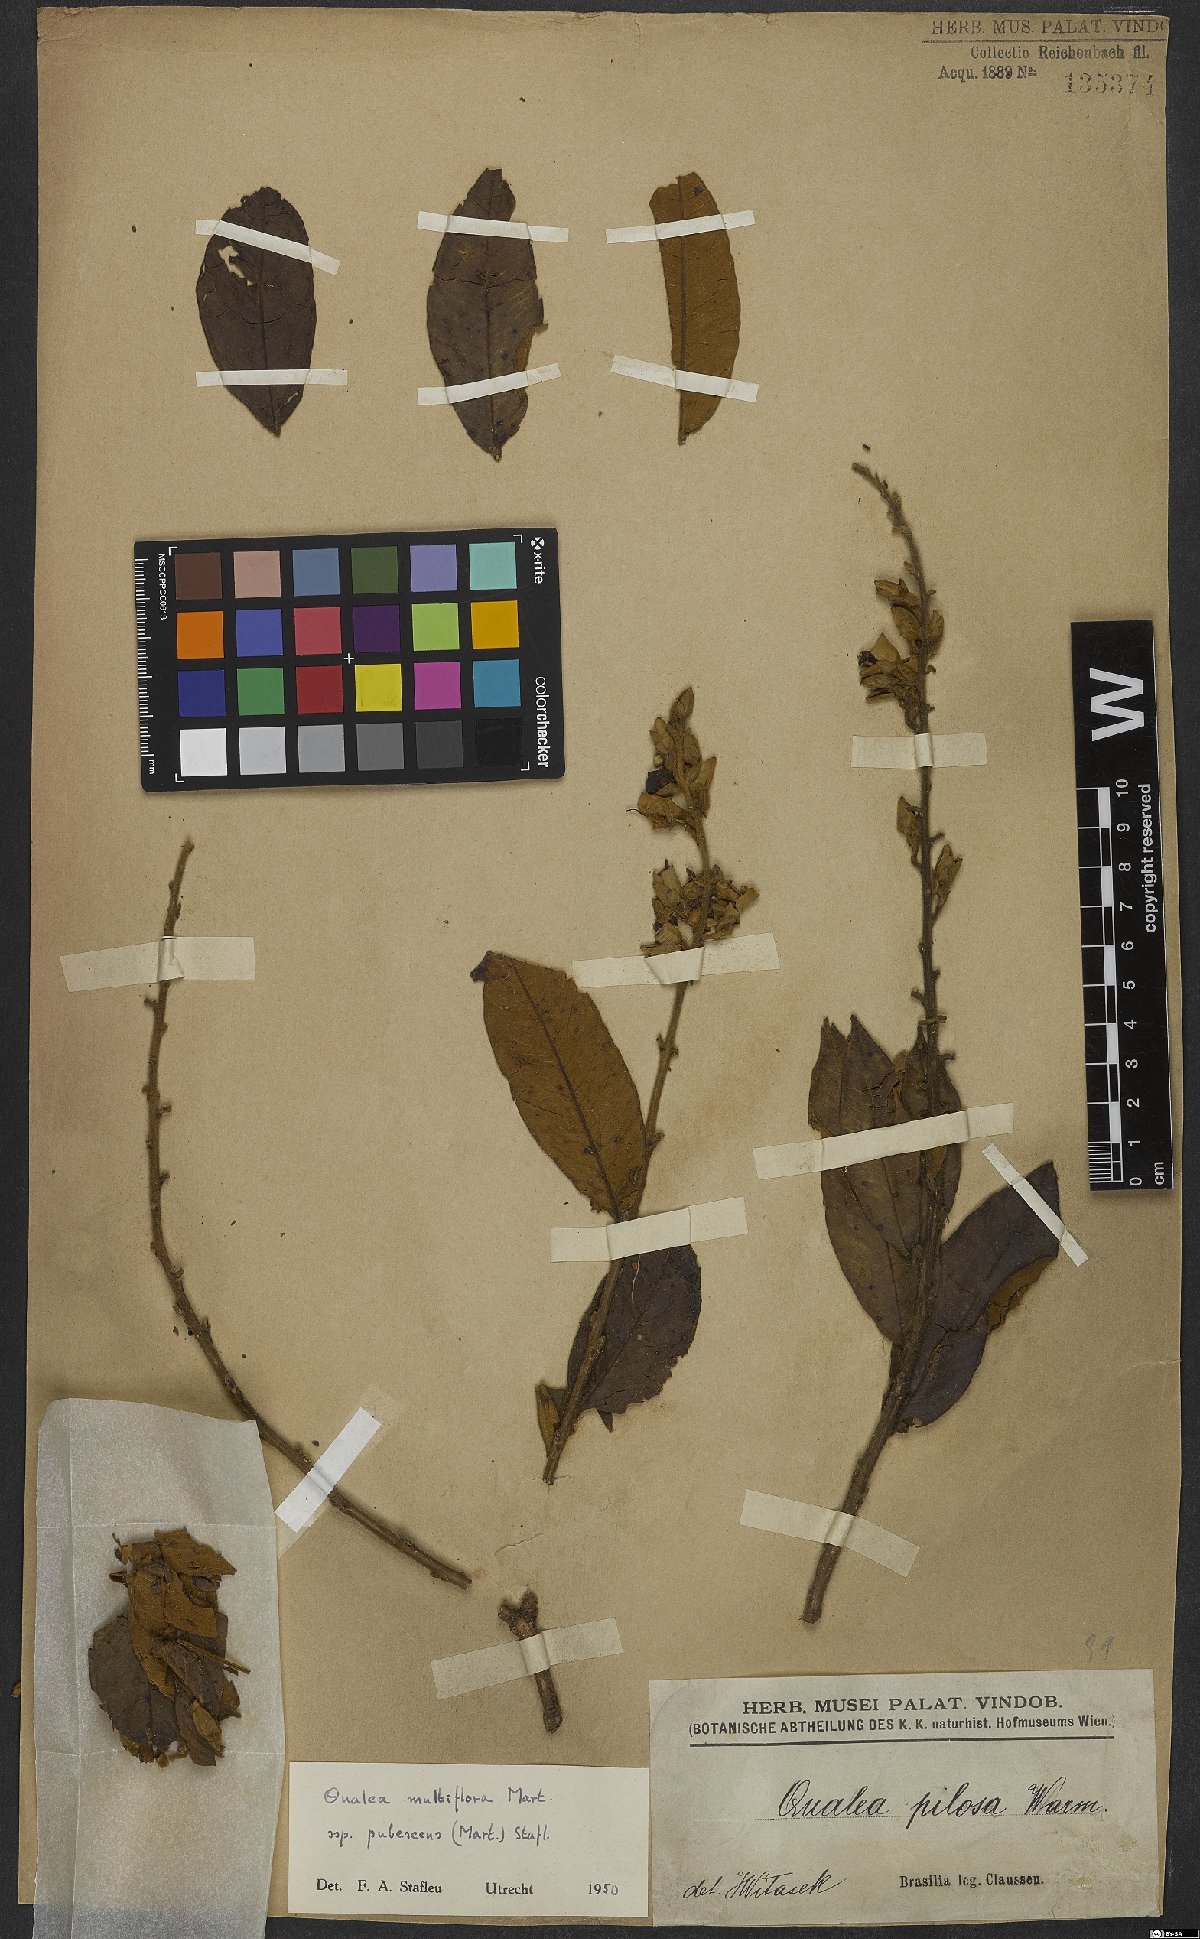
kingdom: Plantae
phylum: Tracheophyta
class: Magnoliopsida
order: Myrtales
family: Vochysiaceae
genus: Qualea
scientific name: Qualea multiflora
